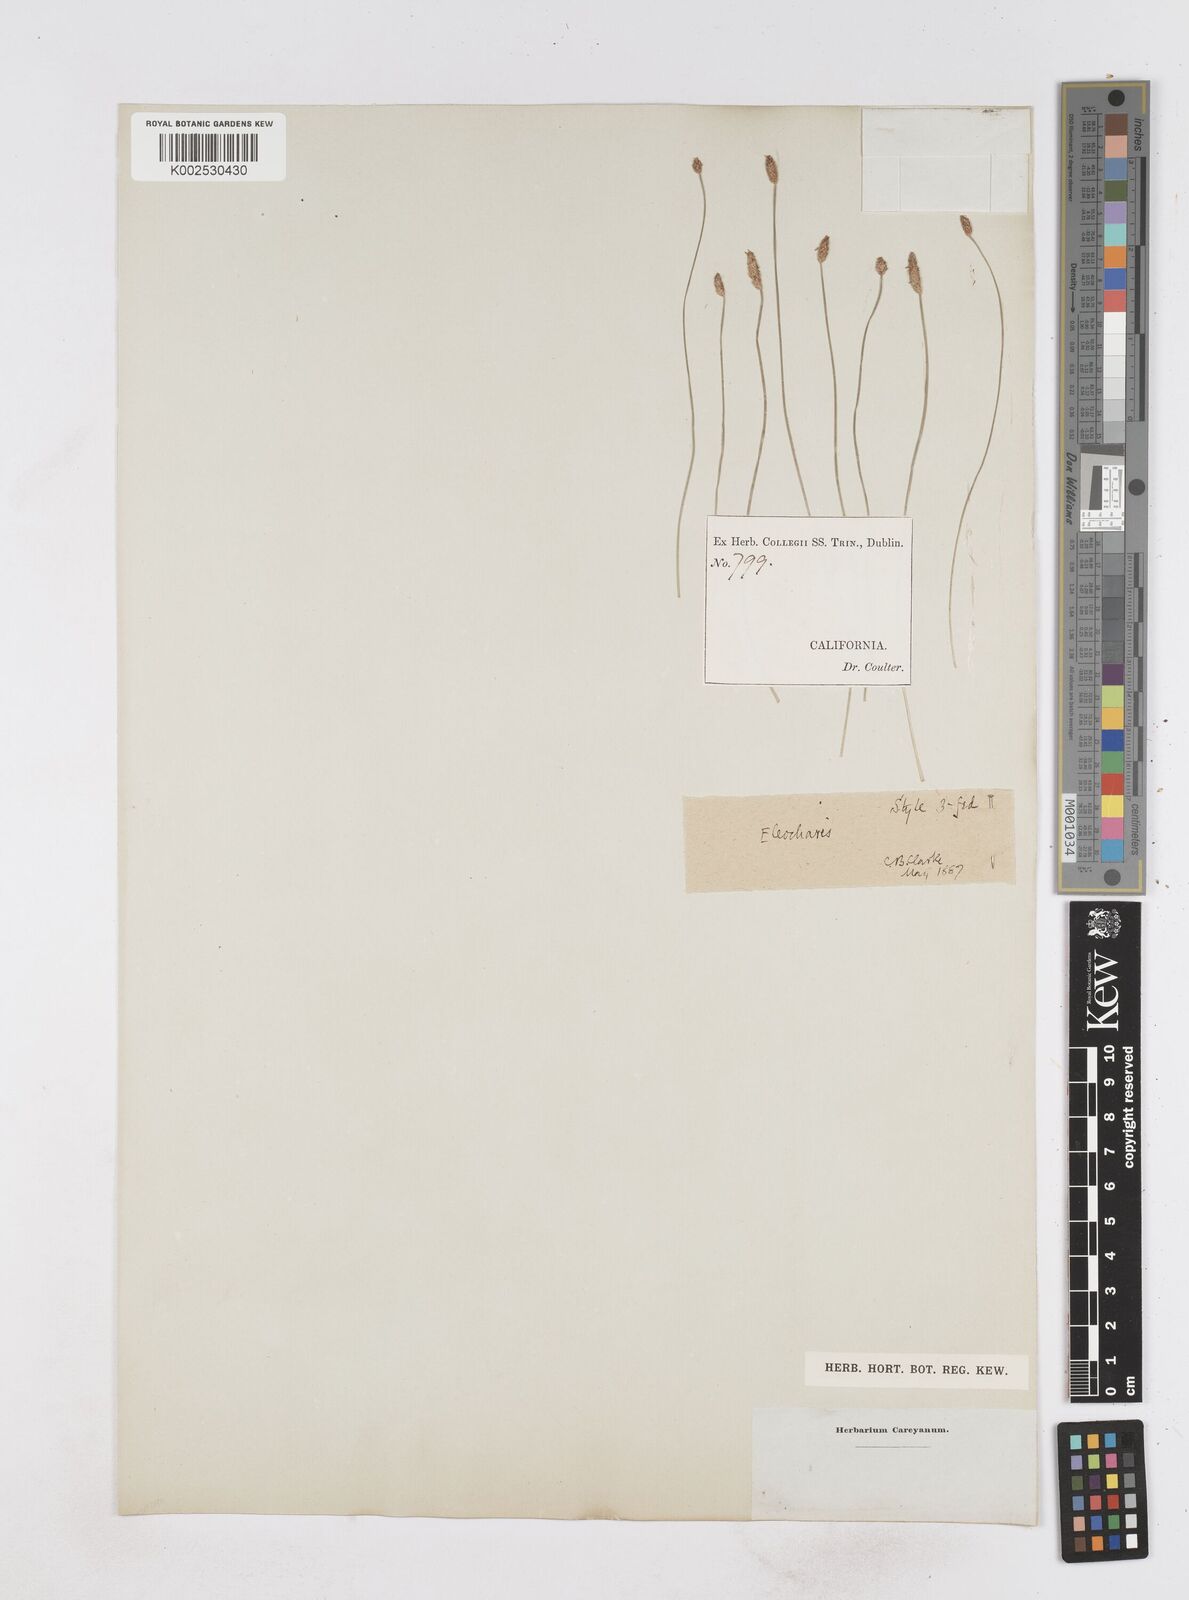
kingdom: Plantae
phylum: Tracheophyta
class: Liliopsida
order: Poales
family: Cyperaceae
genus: Eleocharis
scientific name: Eleocharis
